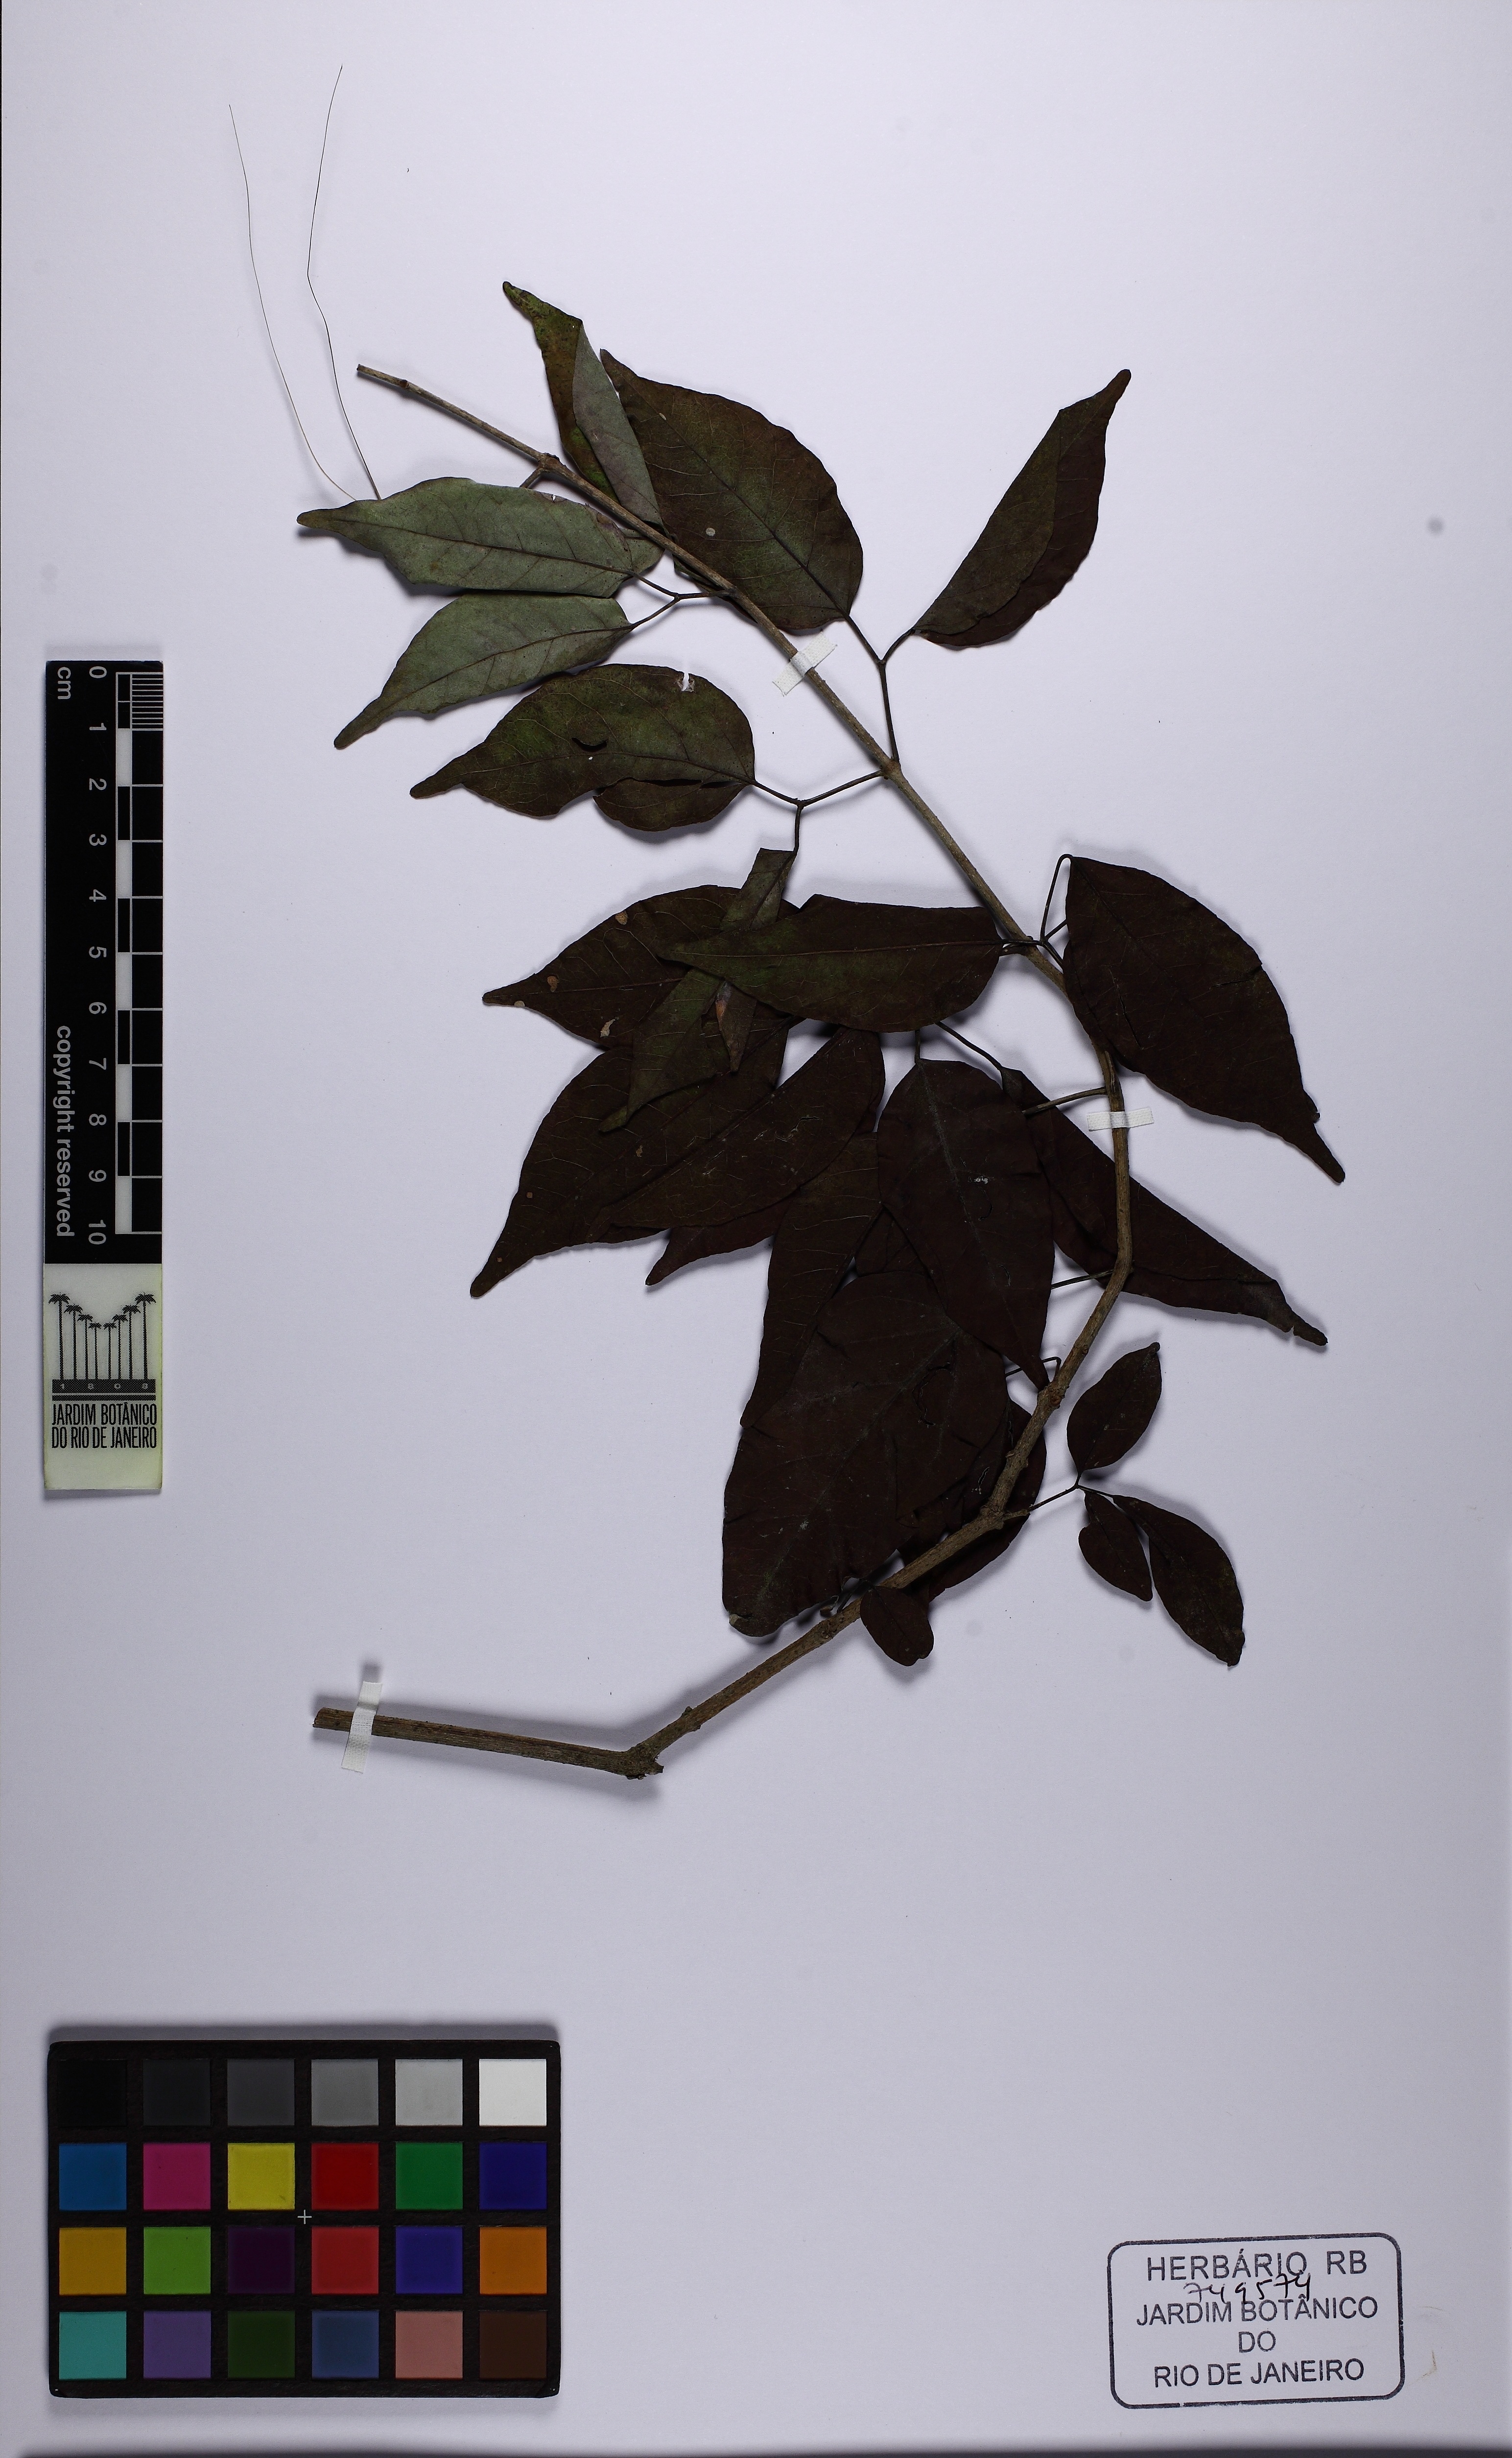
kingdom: Plantae
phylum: Tracheophyta
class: Magnoliopsida
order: Lamiales
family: Bignoniaceae
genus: Fridericia
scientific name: Fridericia rego
